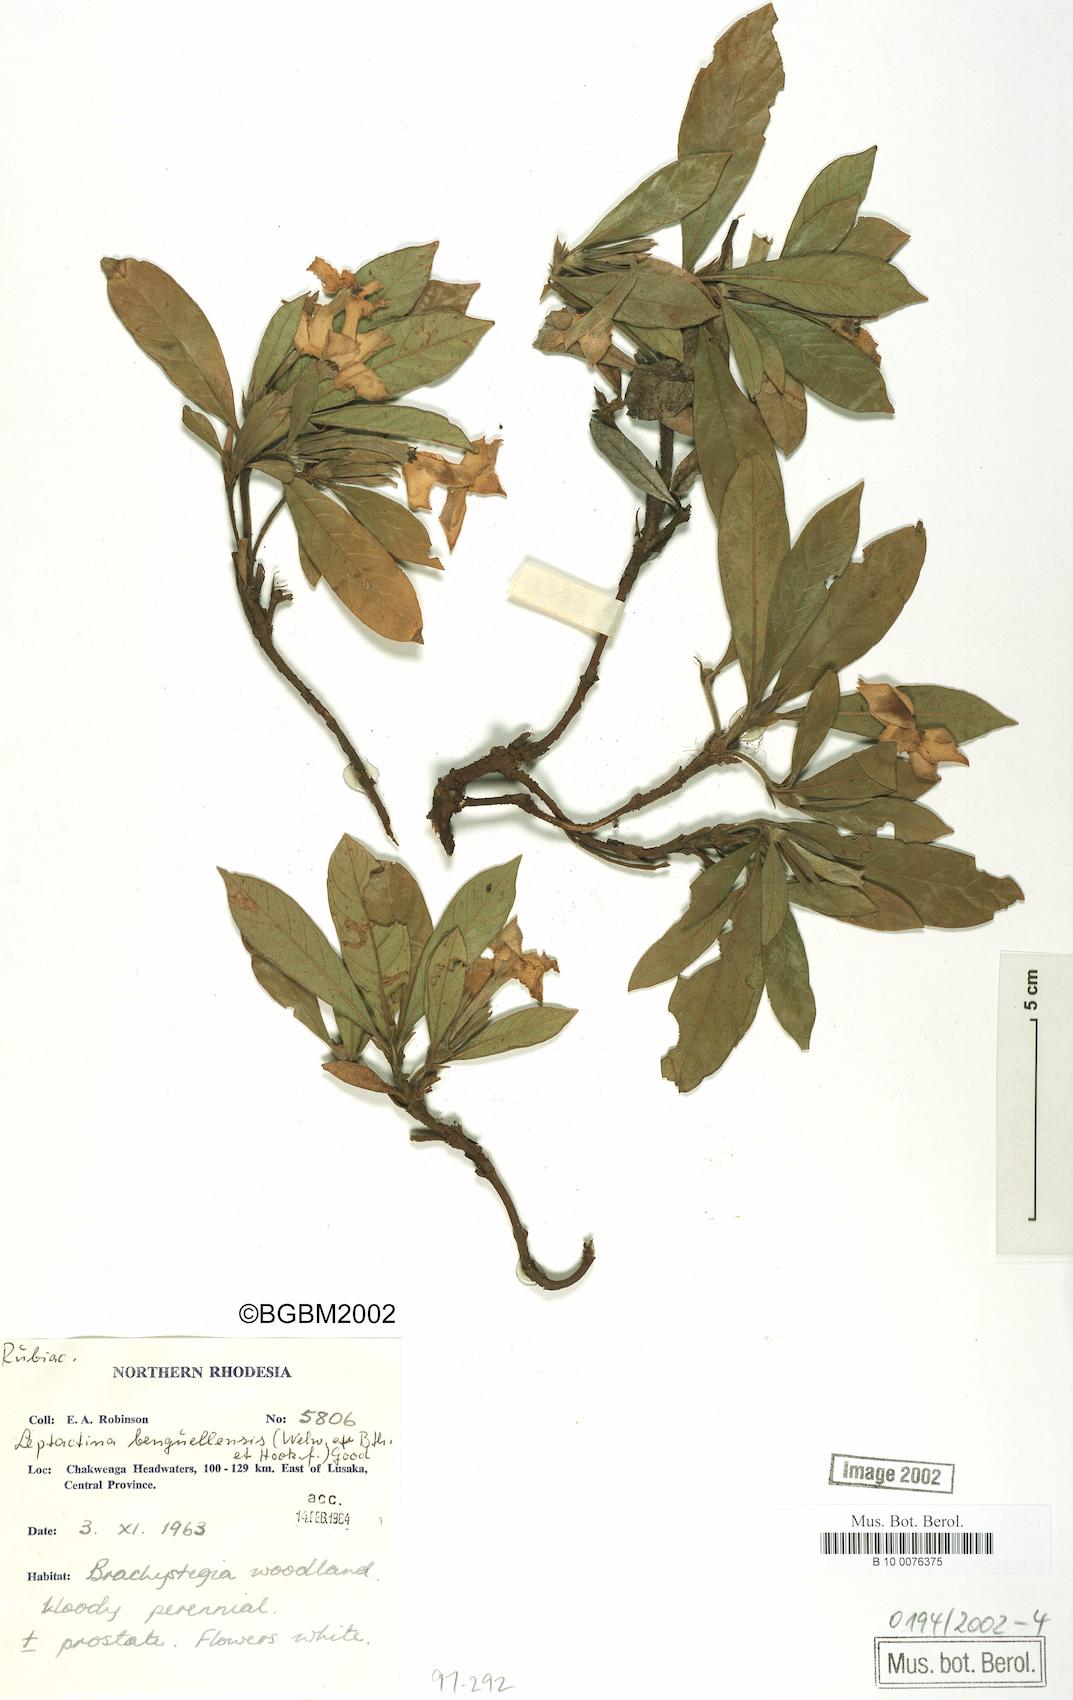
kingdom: Plantae
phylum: Tracheophyta
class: Magnoliopsida
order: Gentianales
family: Rubiaceae
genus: Leptactina
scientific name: Leptactina benguelensis
